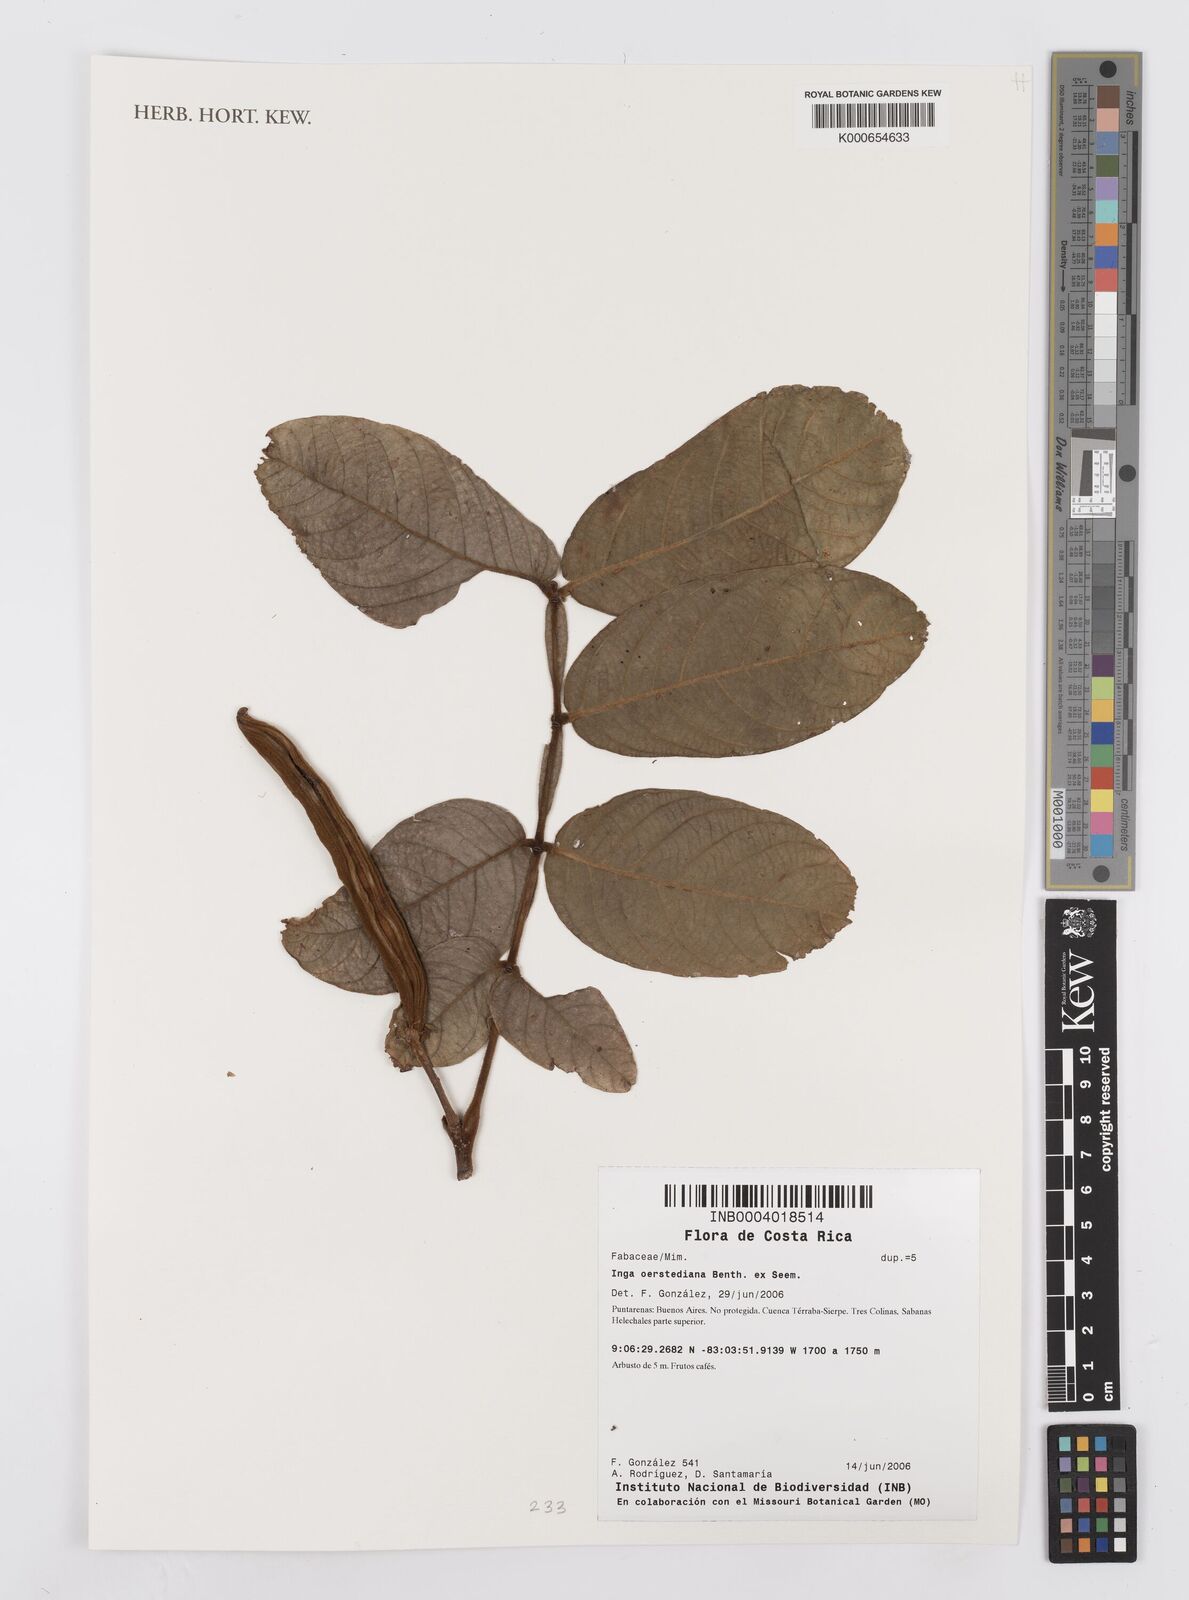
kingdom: Plantae
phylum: Tracheophyta
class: Magnoliopsida
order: Fabales
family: Fabaceae
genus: Inga
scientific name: Inga oerstediana
